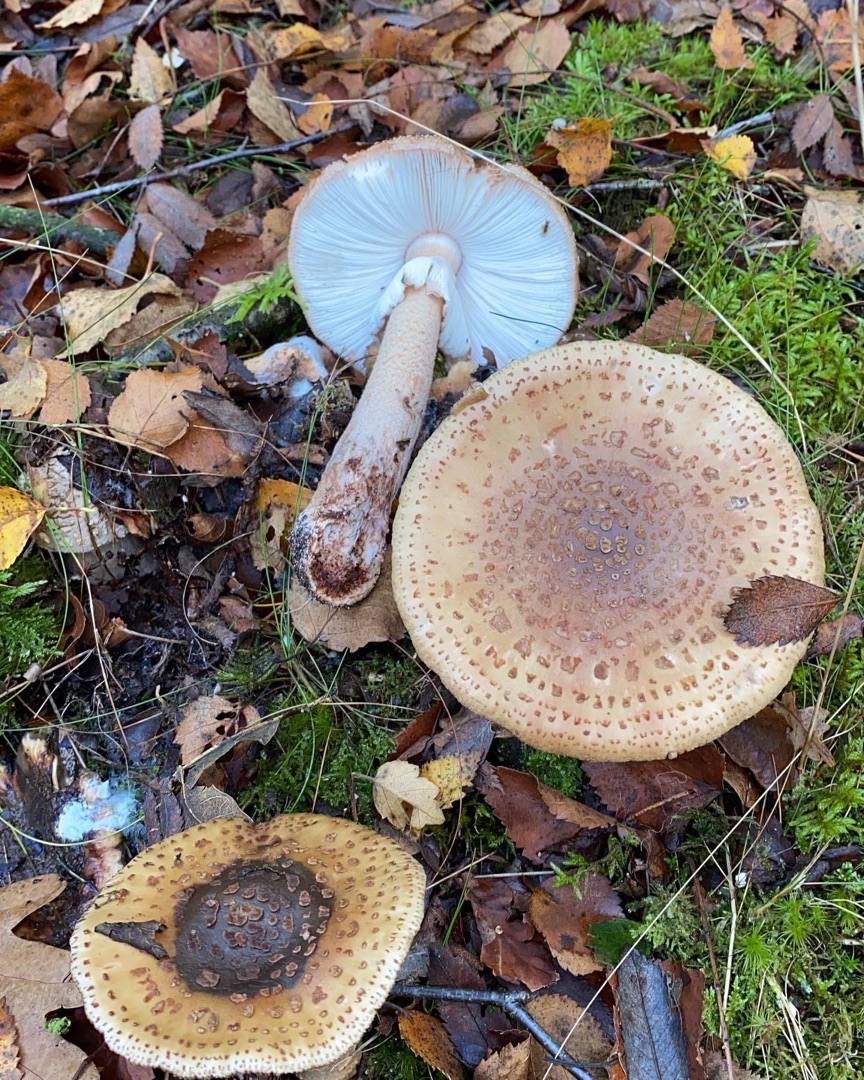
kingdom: Fungi
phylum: Basidiomycota
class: Agaricomycetes
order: Agaricales
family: Amanitaceae
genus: Amanita
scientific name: Amanita rubescens
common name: Rødmende fluesvamp
